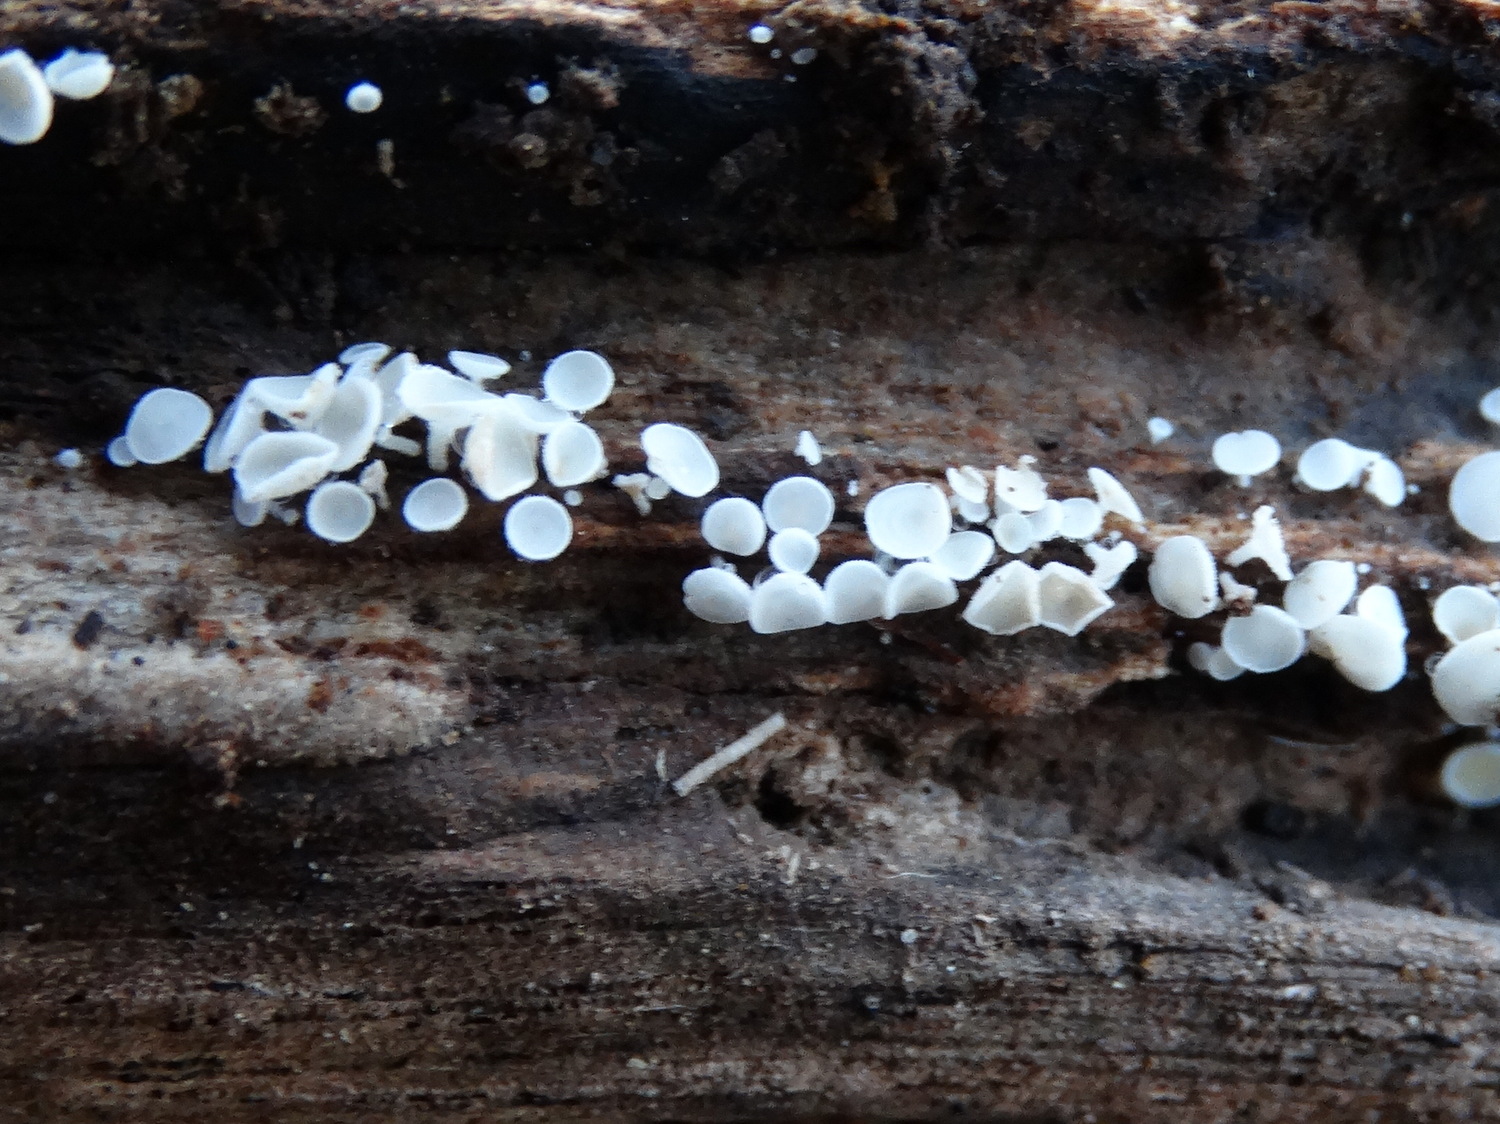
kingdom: Fungi
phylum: Ascomycota
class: Leotiomycetes
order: Helotiales
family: Lachnaceae
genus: Lachnum
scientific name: Lachnum
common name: frynseskive
